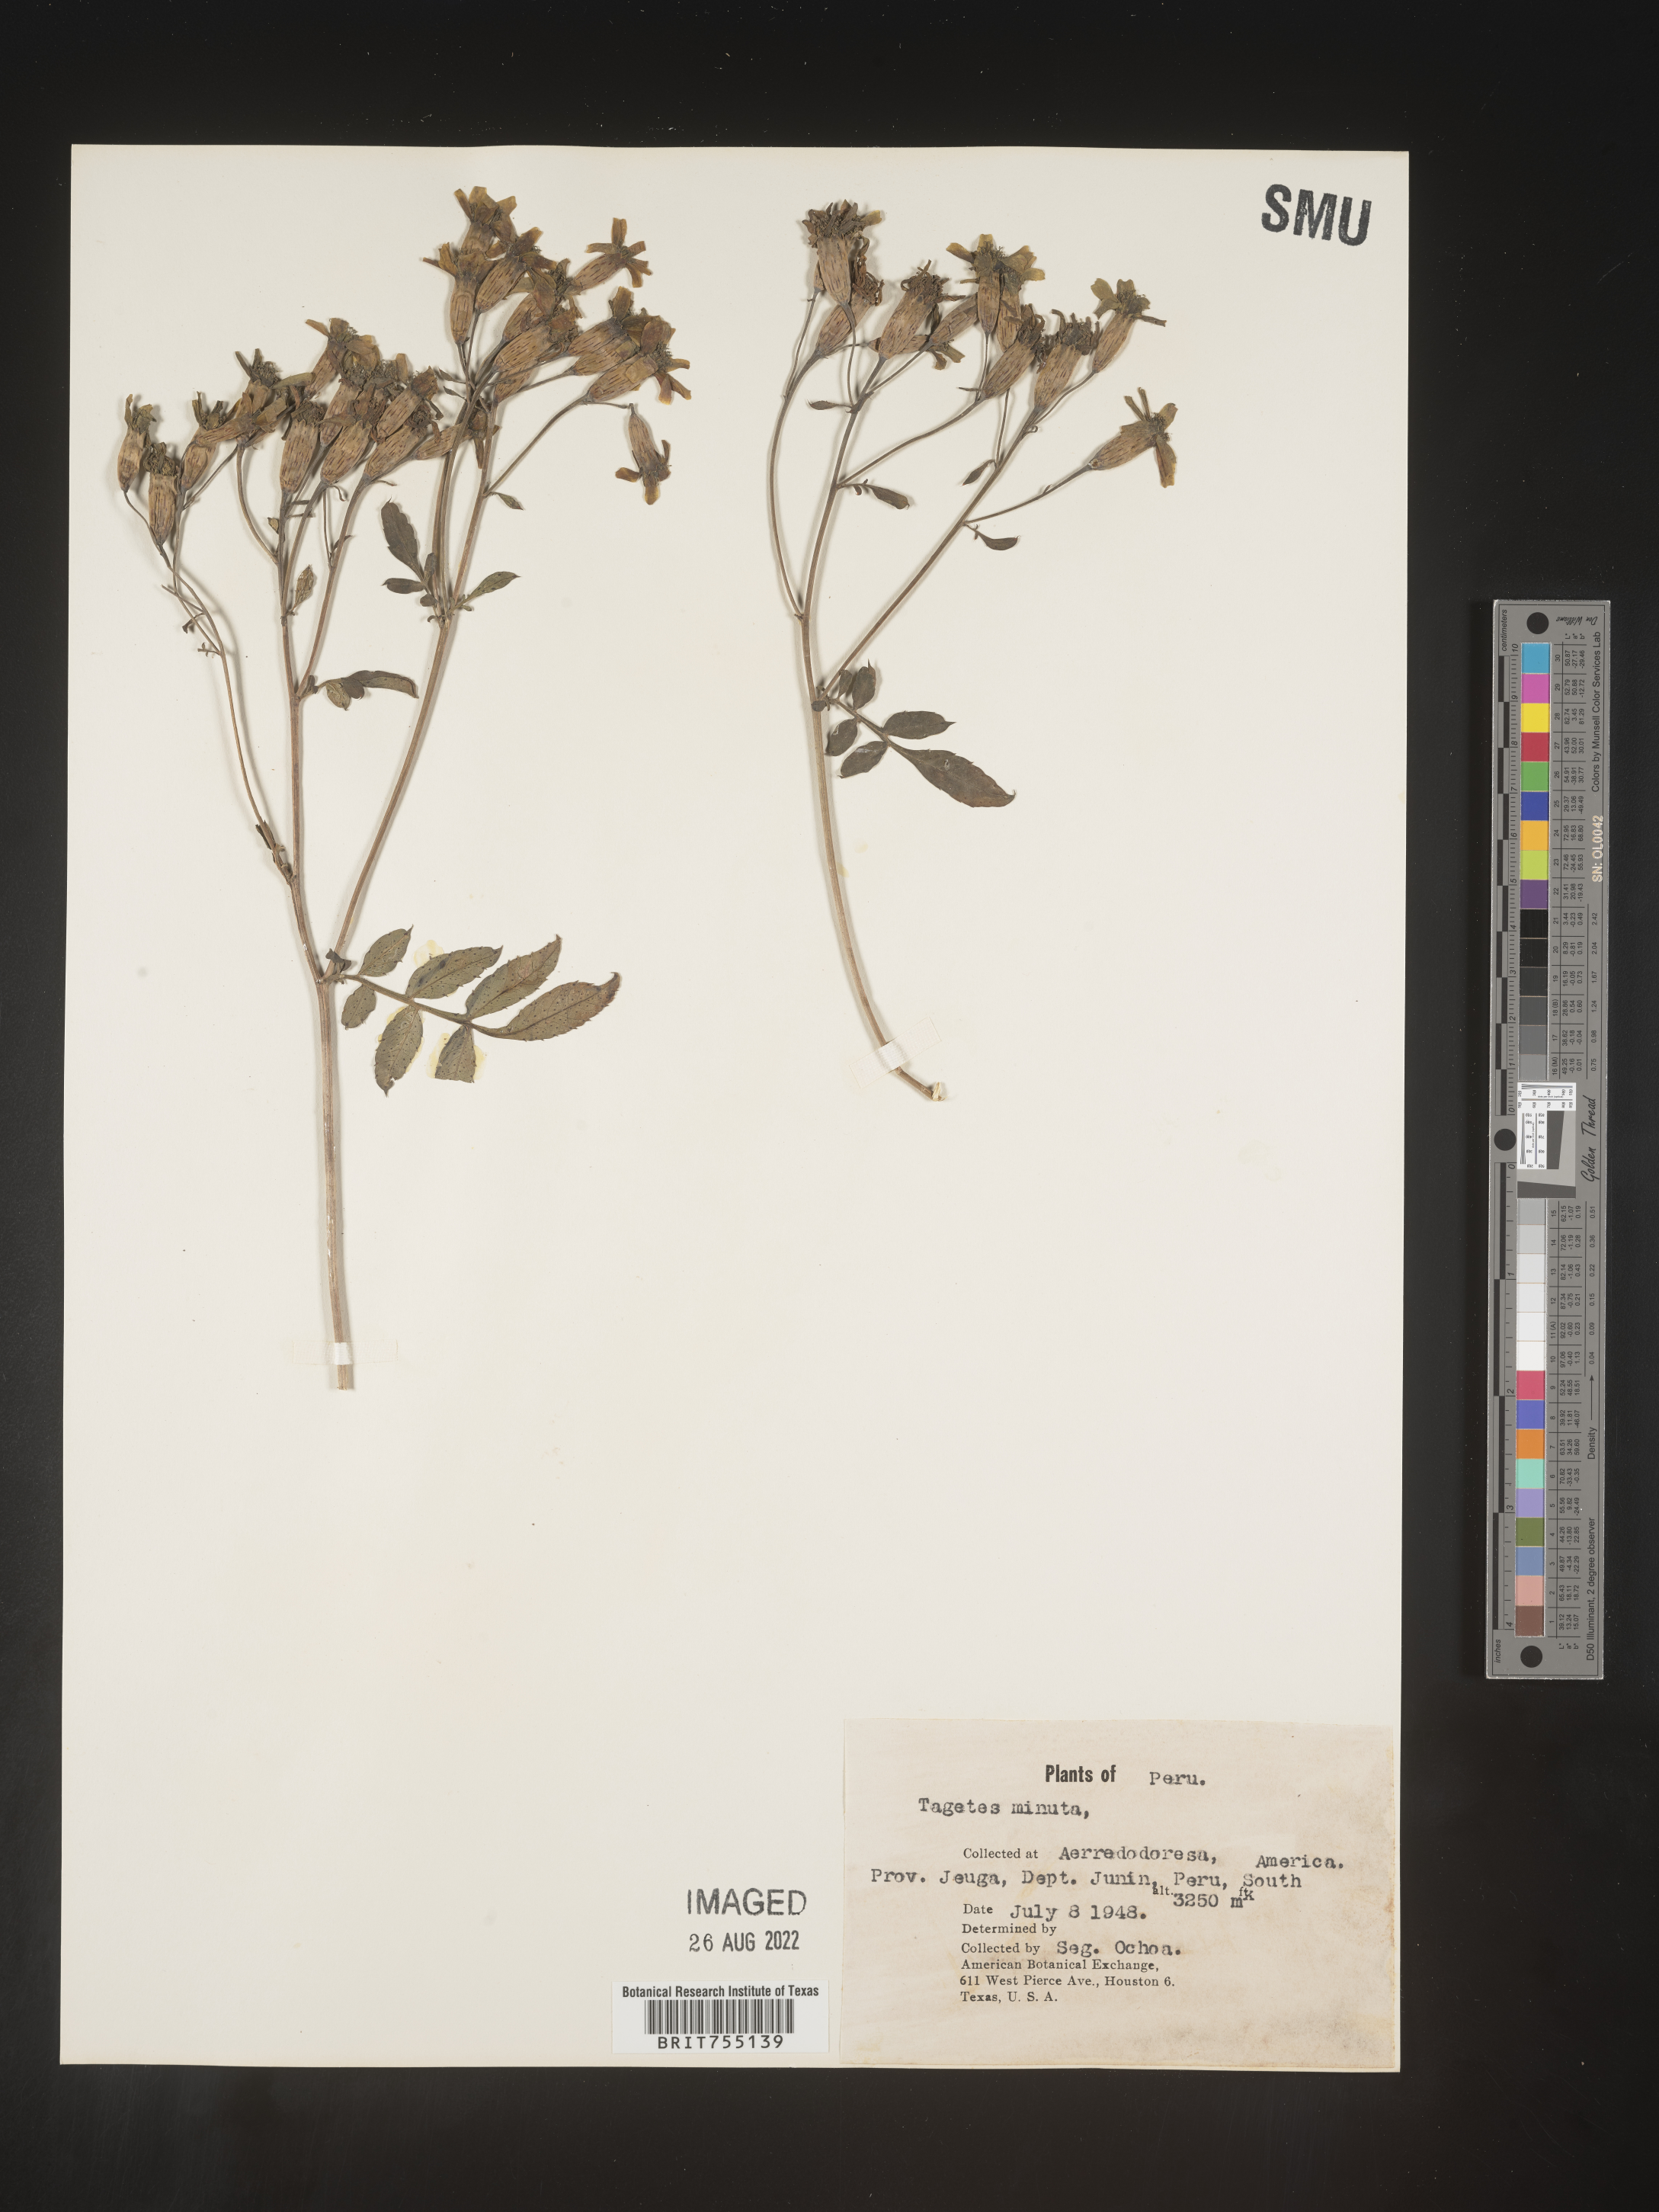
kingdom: Plantae
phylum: Tracheophyta
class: Magnoliopsida
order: Asterales
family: Asteraceae
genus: Tagetes
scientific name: Tagetes
